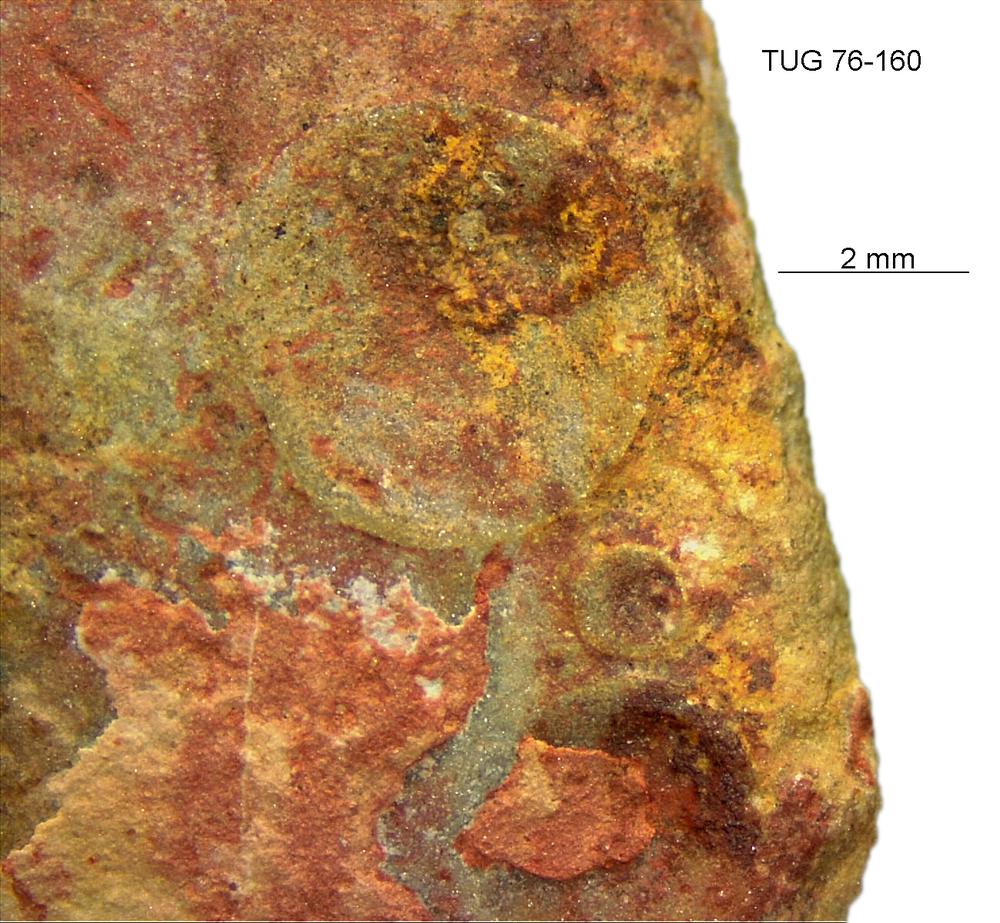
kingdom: Animalia
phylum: Brachiopoda
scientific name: Brachiopoda
